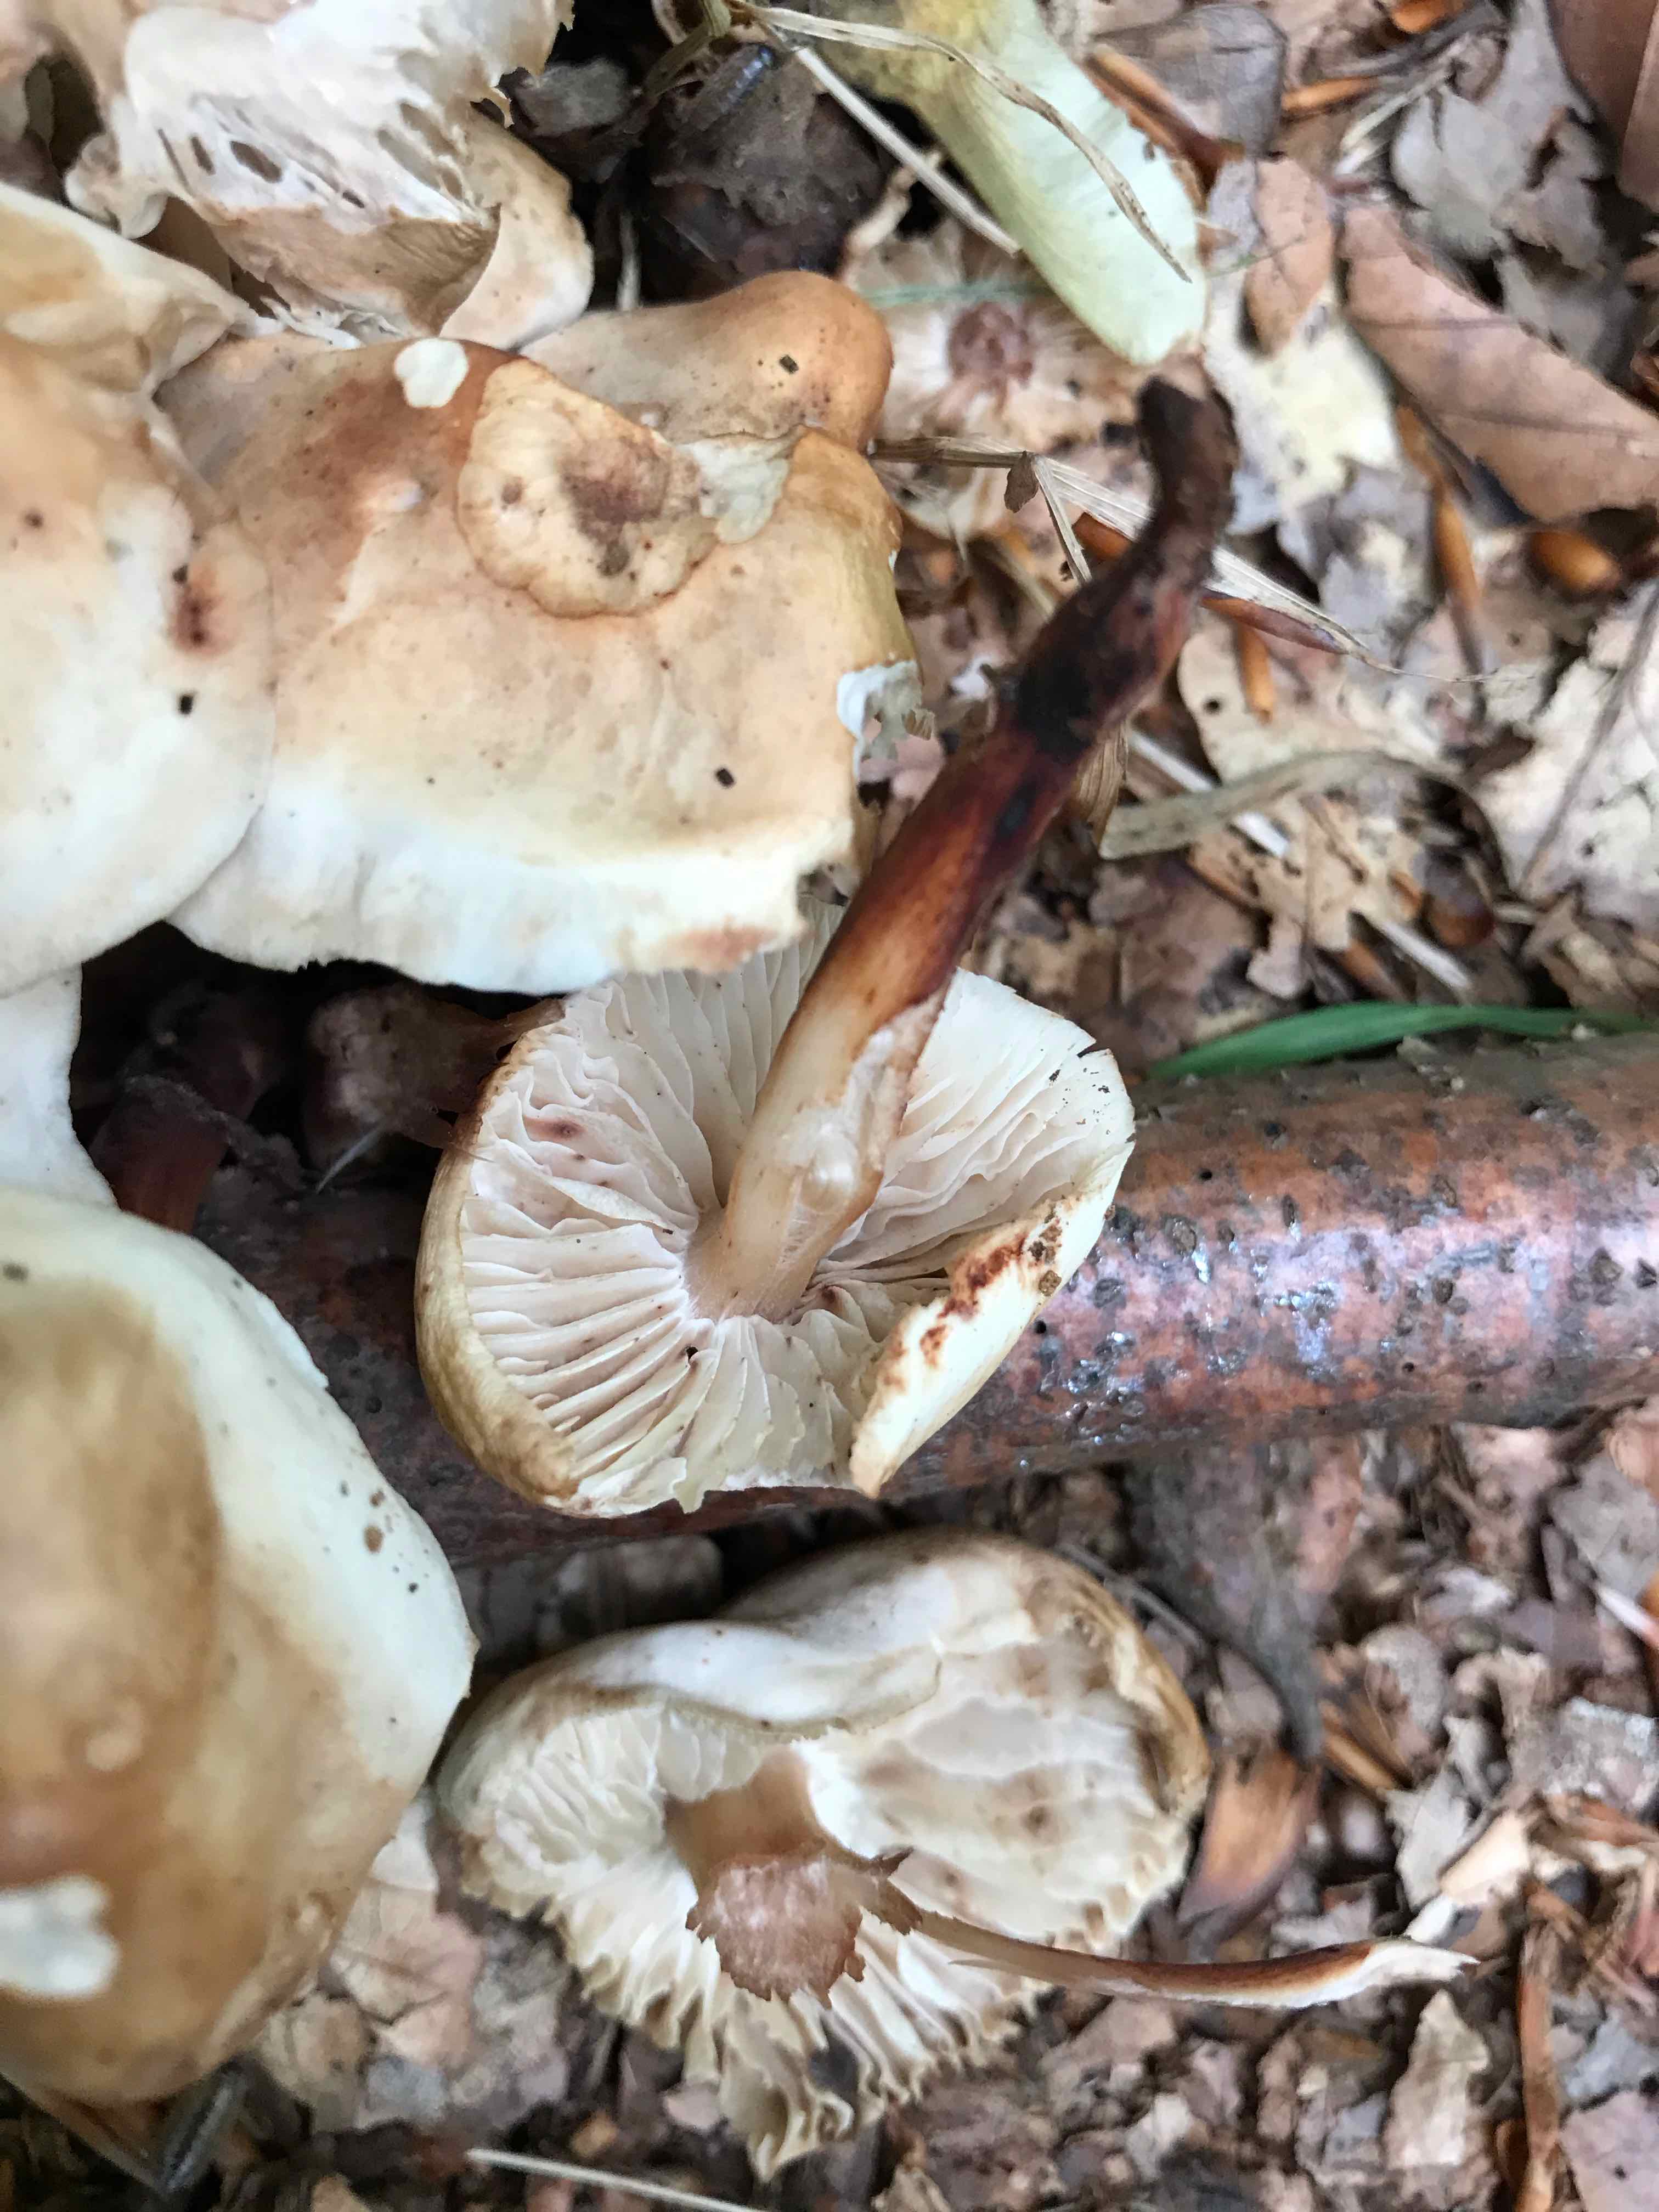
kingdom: Fungi
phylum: Basidiomycota
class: Agaricomycetes
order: Agaricales
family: Omphalotaceae
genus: Gymnopus
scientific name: Gymnopus fusipes
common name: tenstokket fladhat
